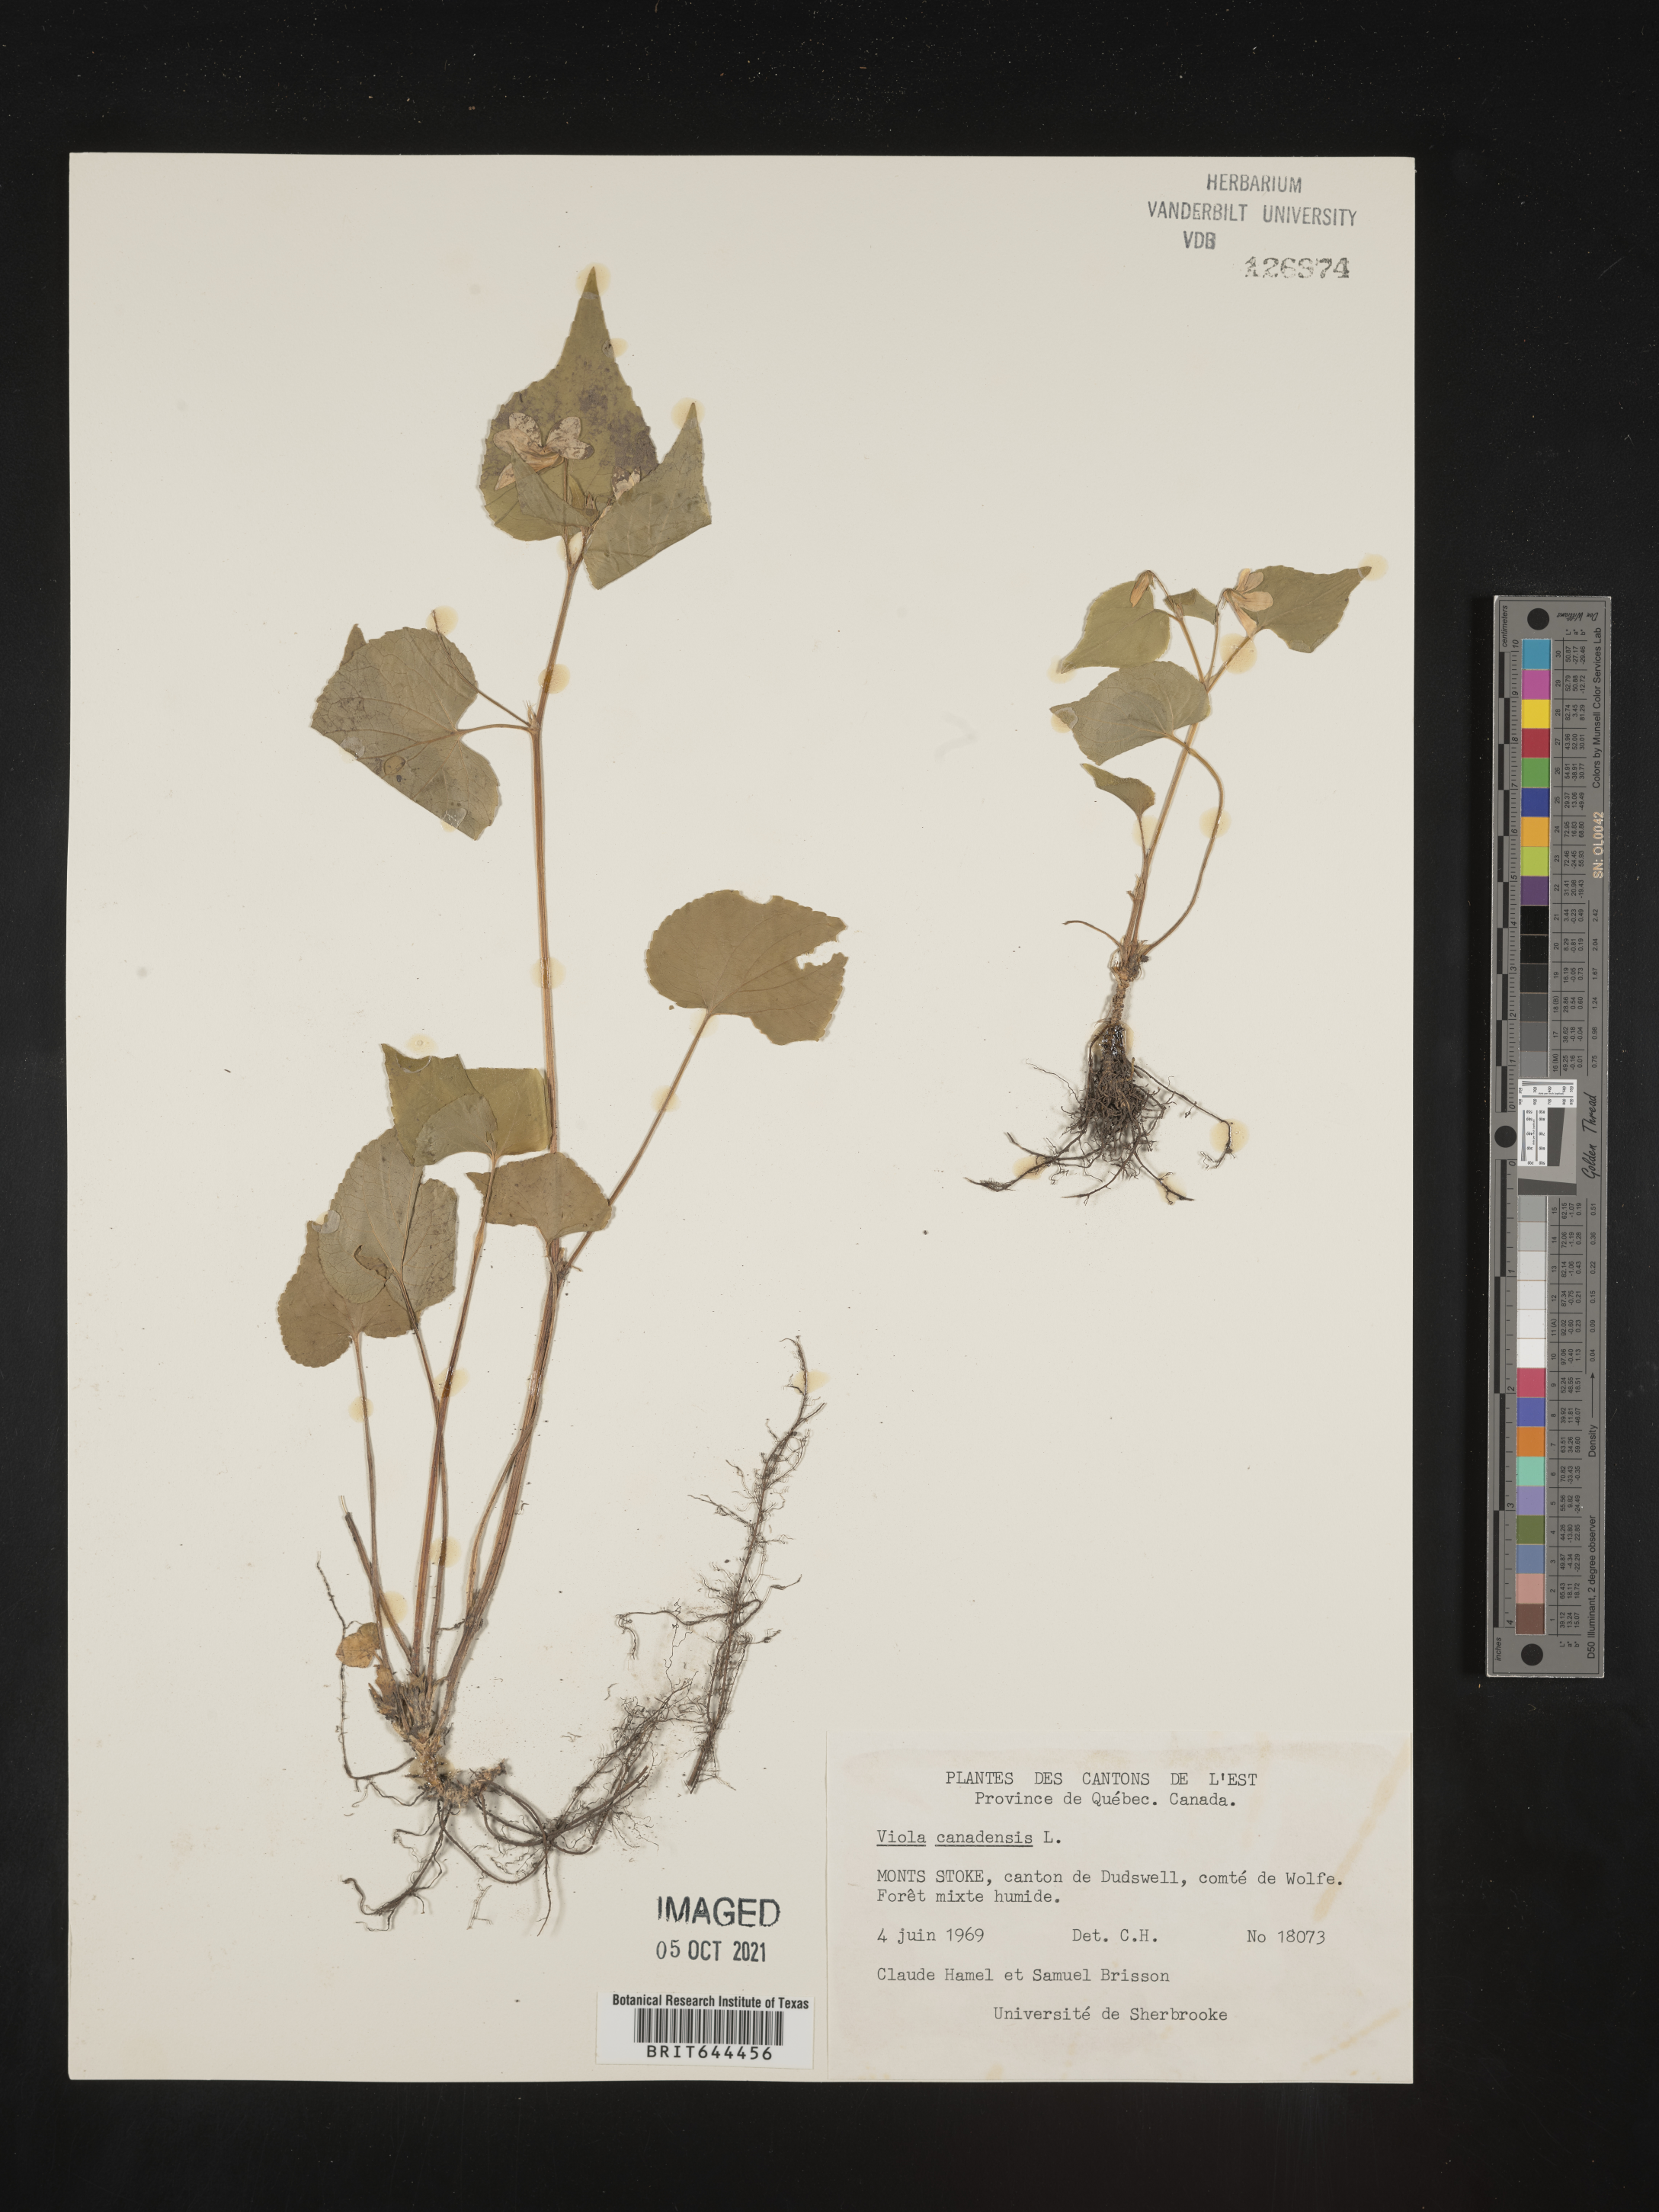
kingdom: Plantae
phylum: Tracheophyta
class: Magnoliopsida
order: Malpighiales
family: Violaceae
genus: Viola
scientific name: Viola
